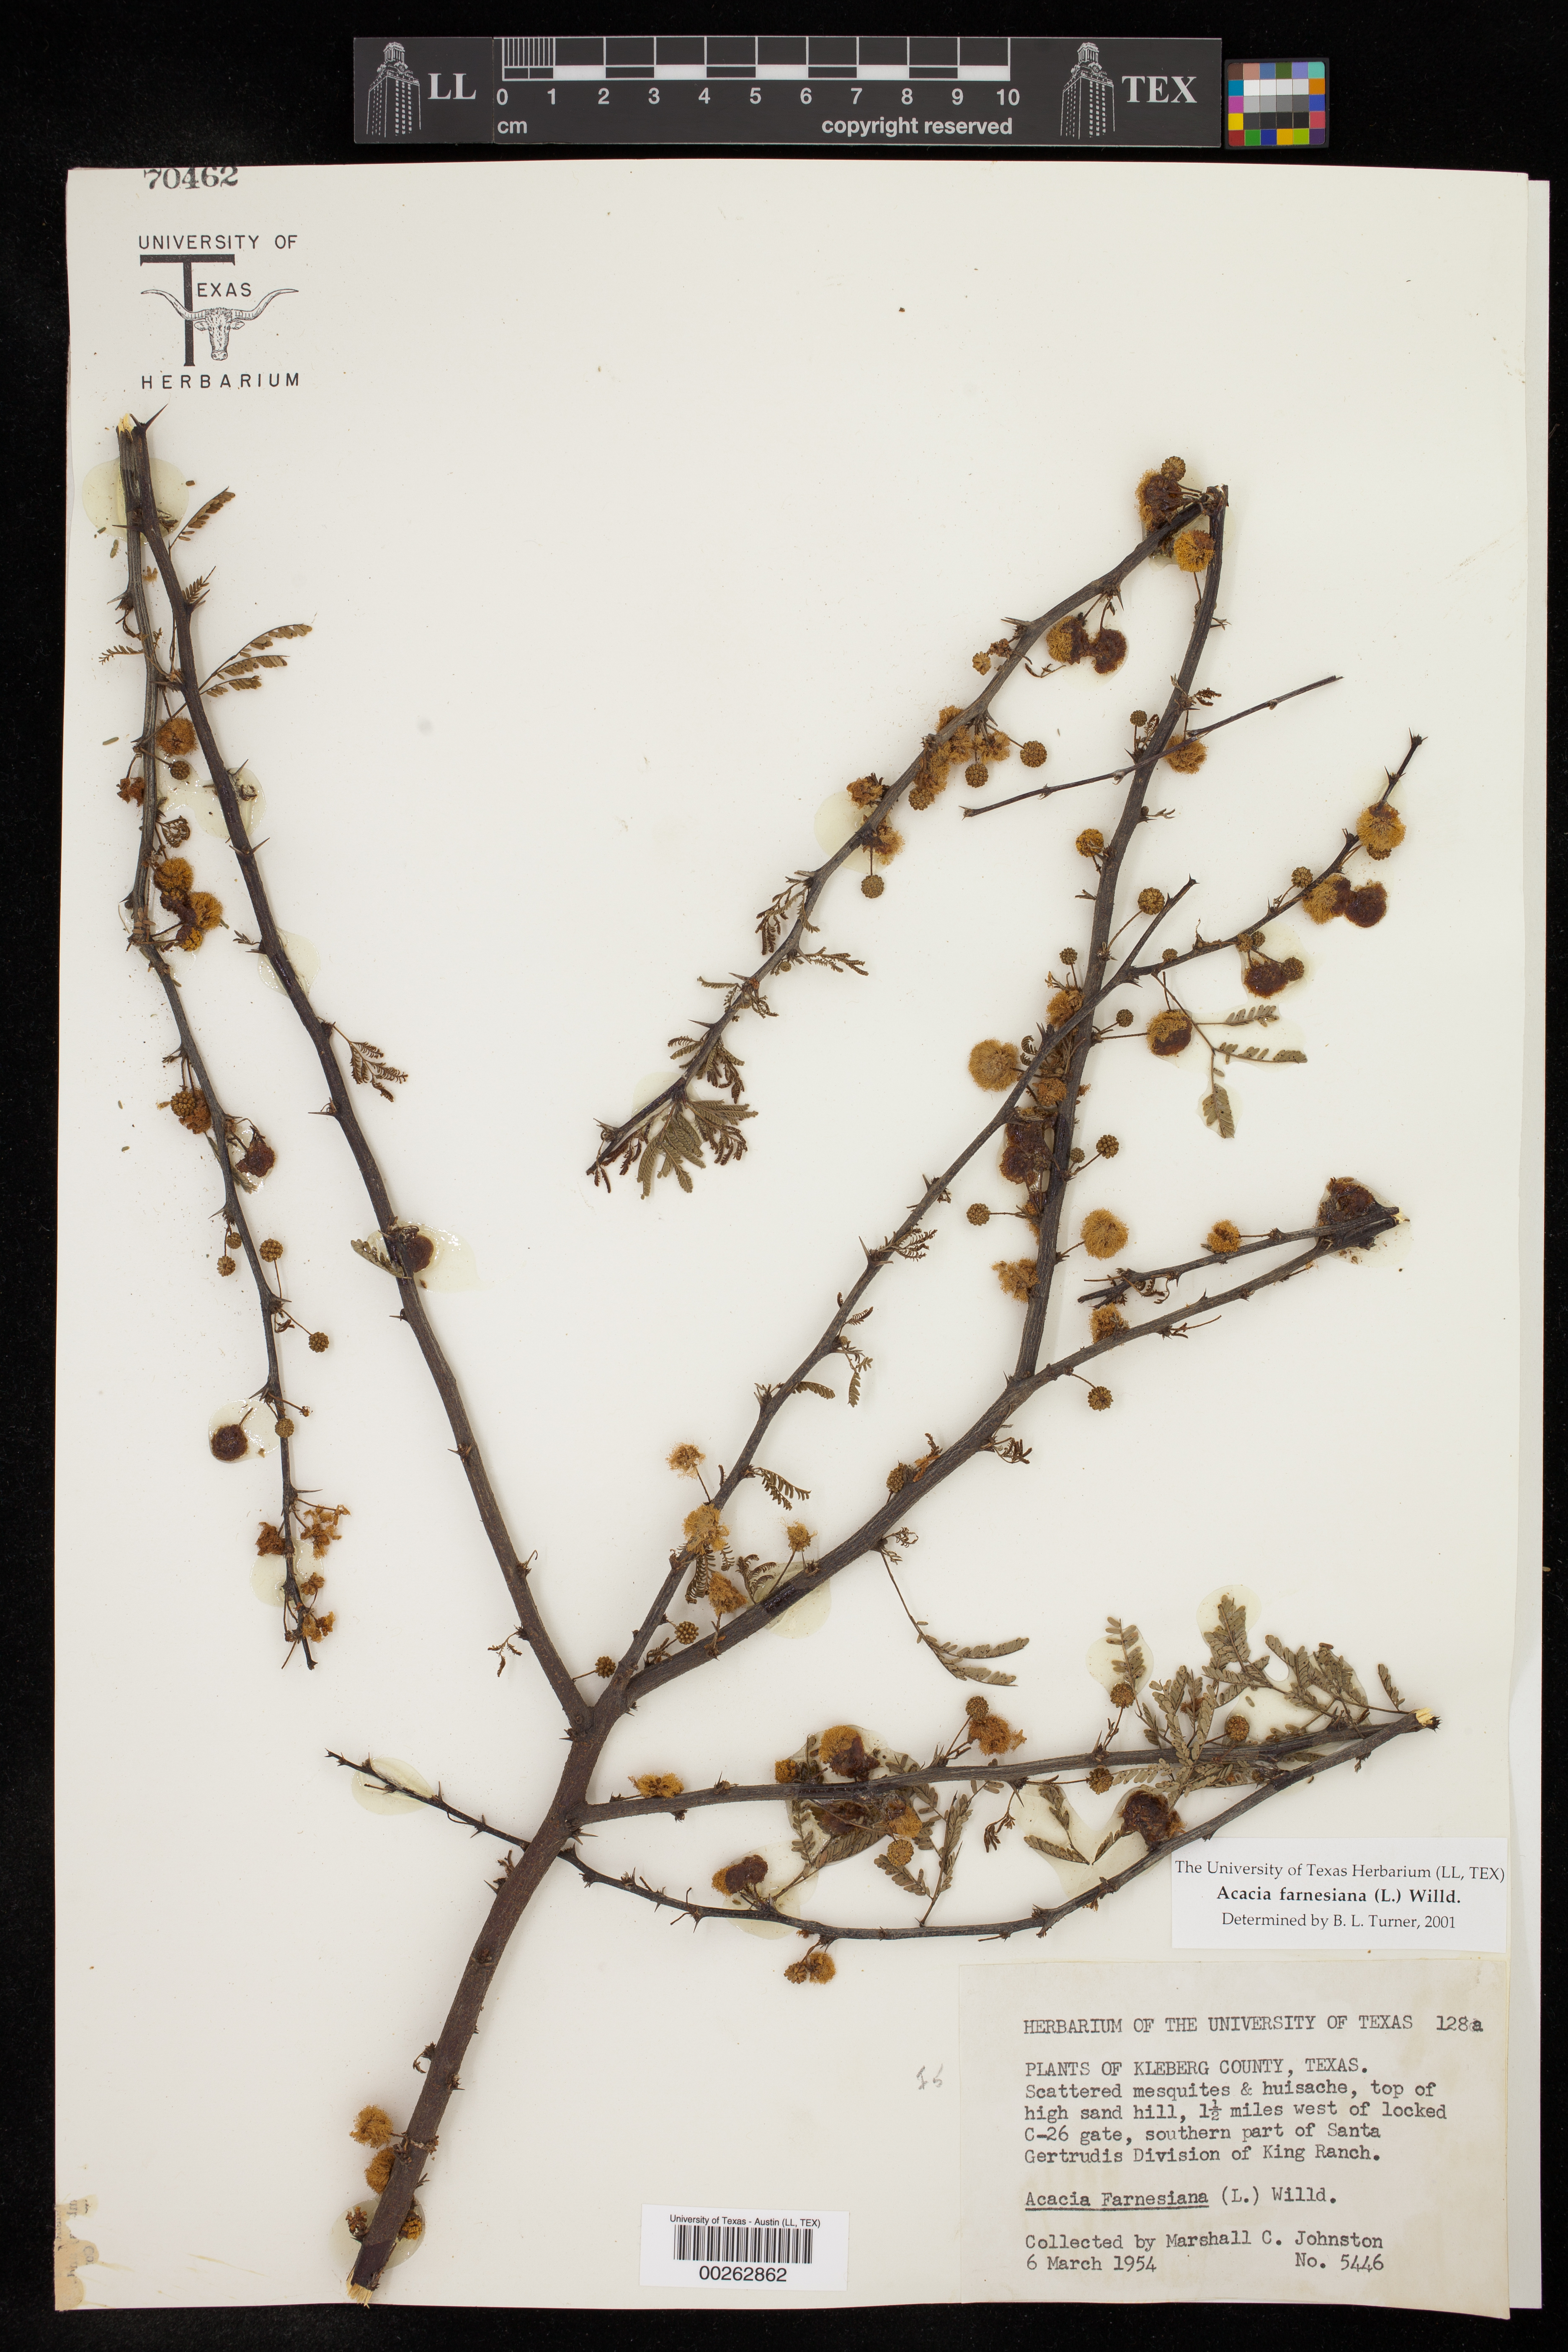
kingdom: Plantae
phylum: Tracheophyta
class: Magnoliopsida
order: Fabales
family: Fabaceae
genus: Vachellia
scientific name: Vachellia farnesiana
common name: Sweet acacia
